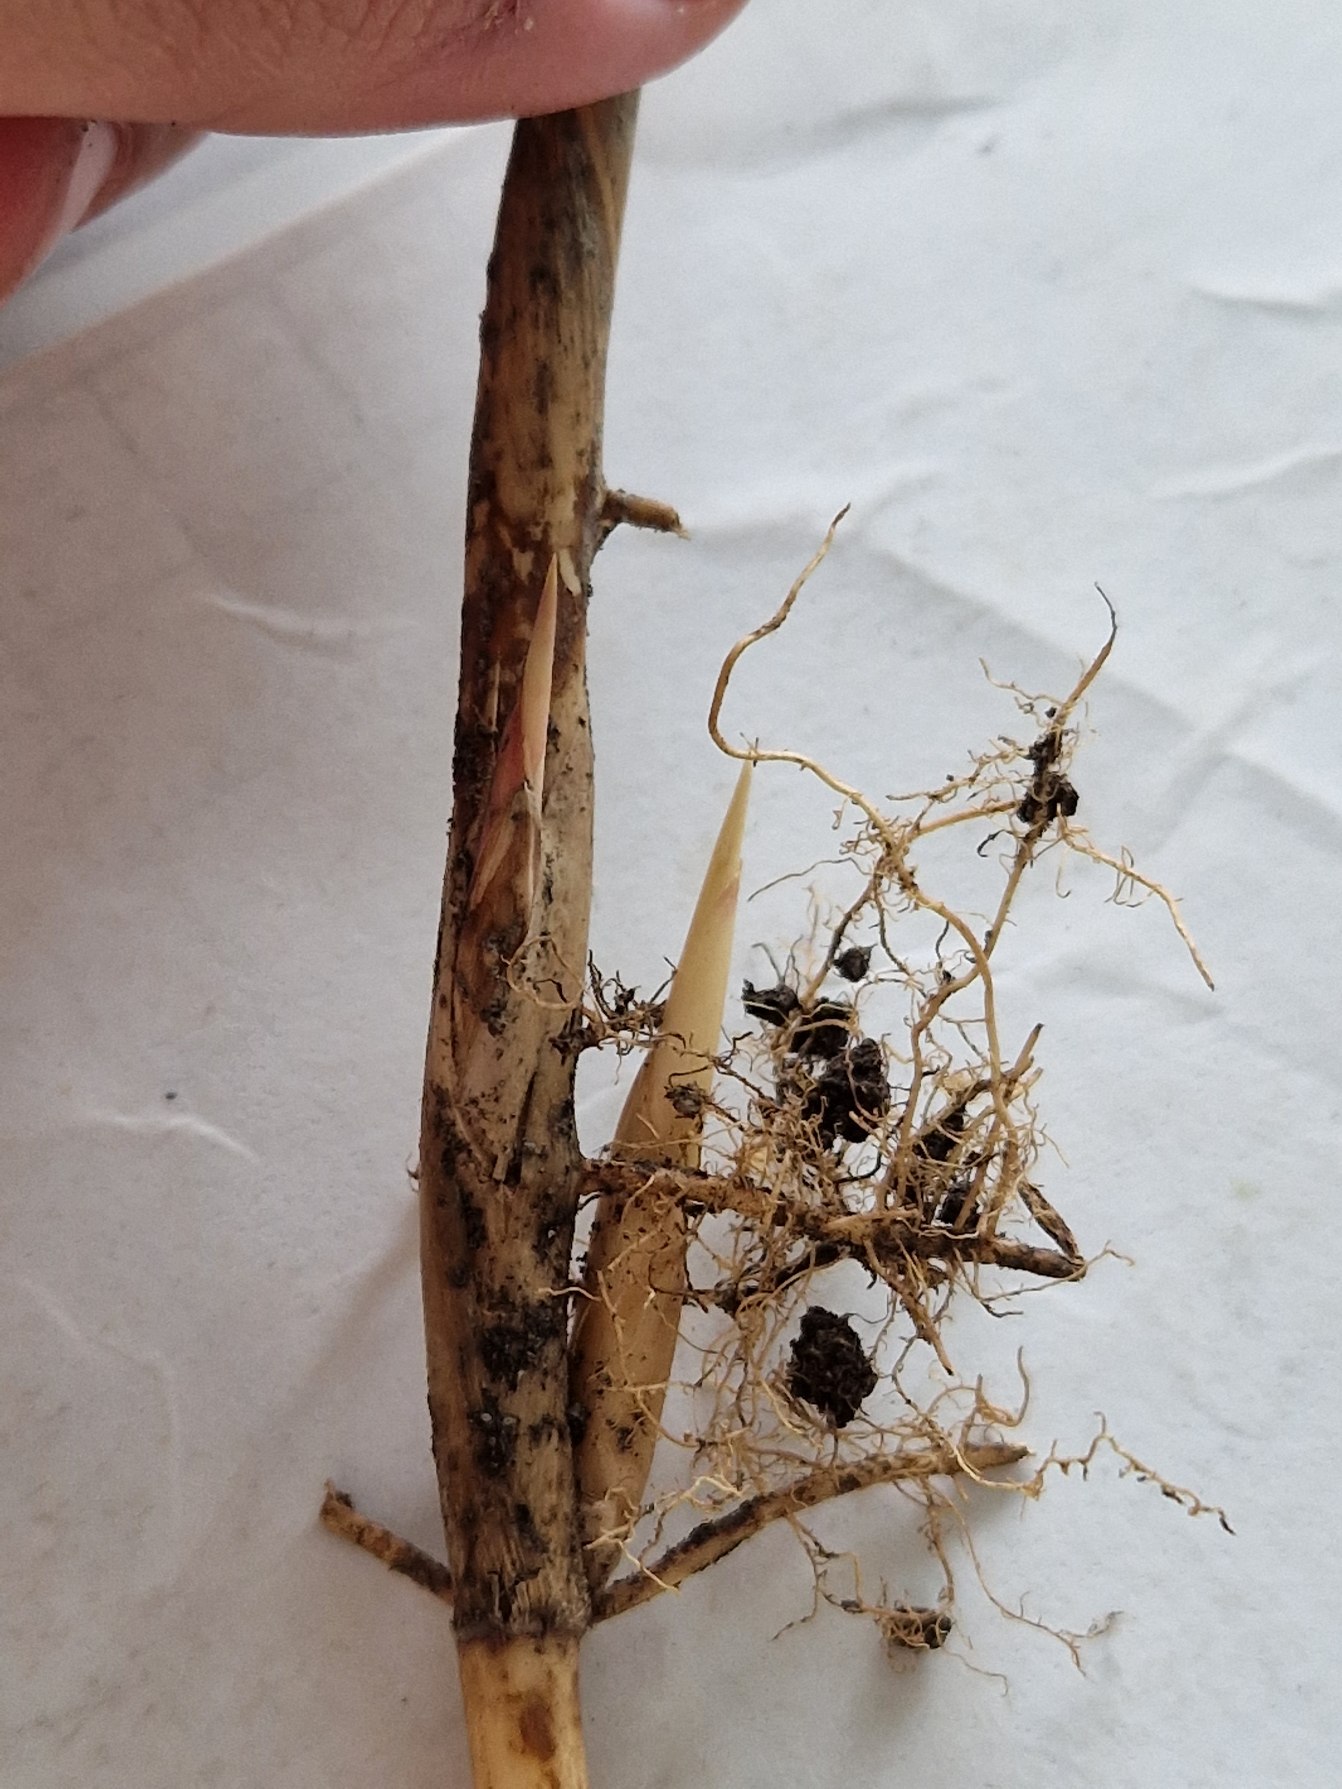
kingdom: Plantae
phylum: Tracheophyta
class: Liliopsida
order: Poales
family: Poaceae
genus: Phragmites
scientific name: Phragmites australis
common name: Tagrør
